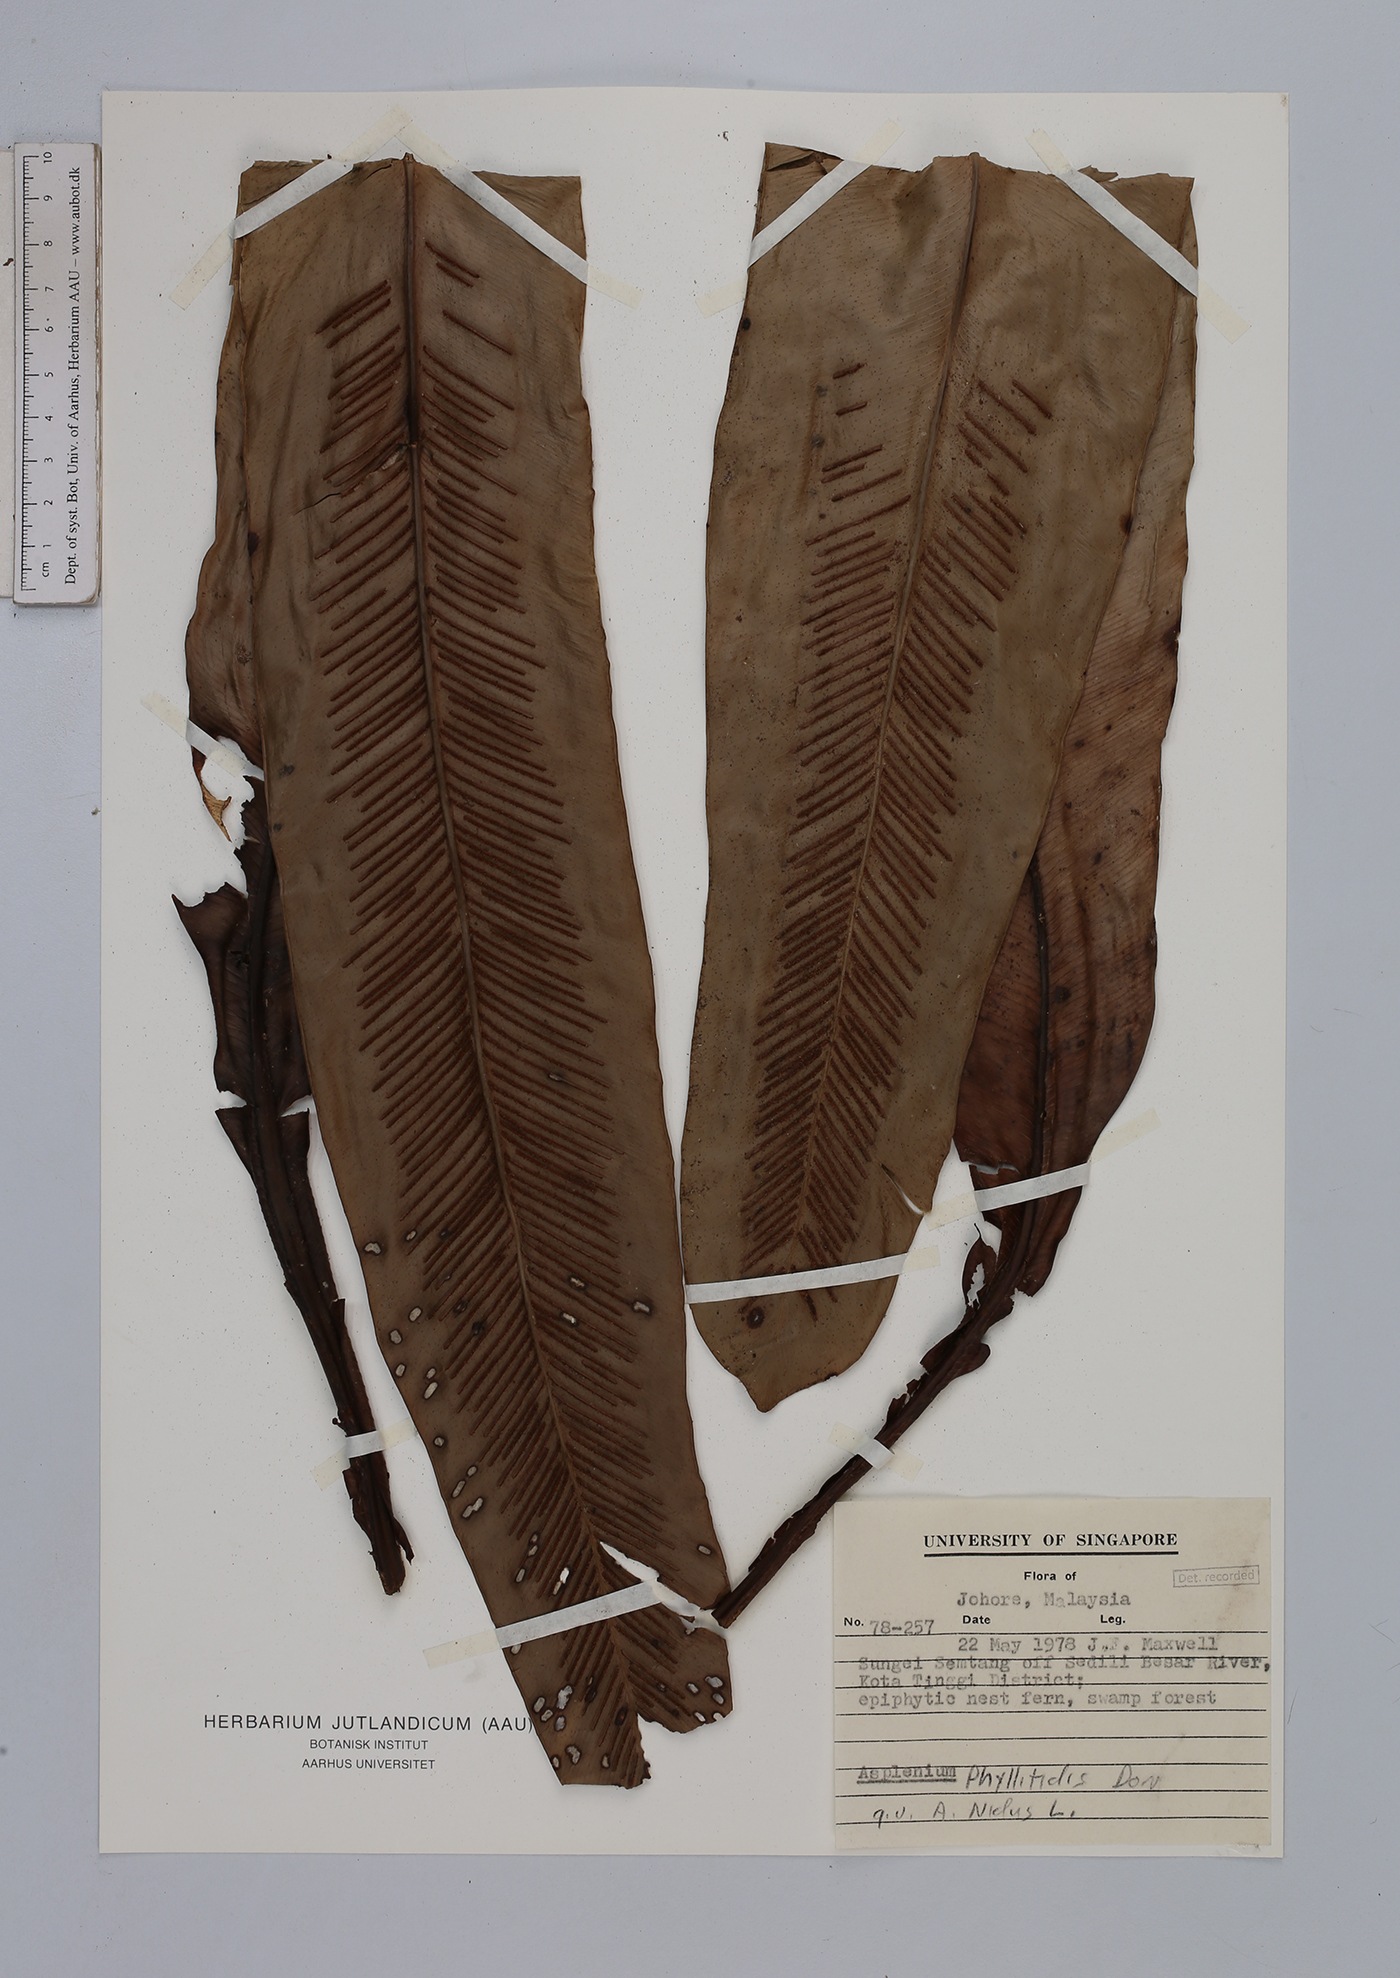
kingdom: Plantae
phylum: Tracheophyta
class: Polypodiopsida
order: Polypodiales
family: Aspleniaceae
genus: Asplenium
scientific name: Asplenium phyllitidis
